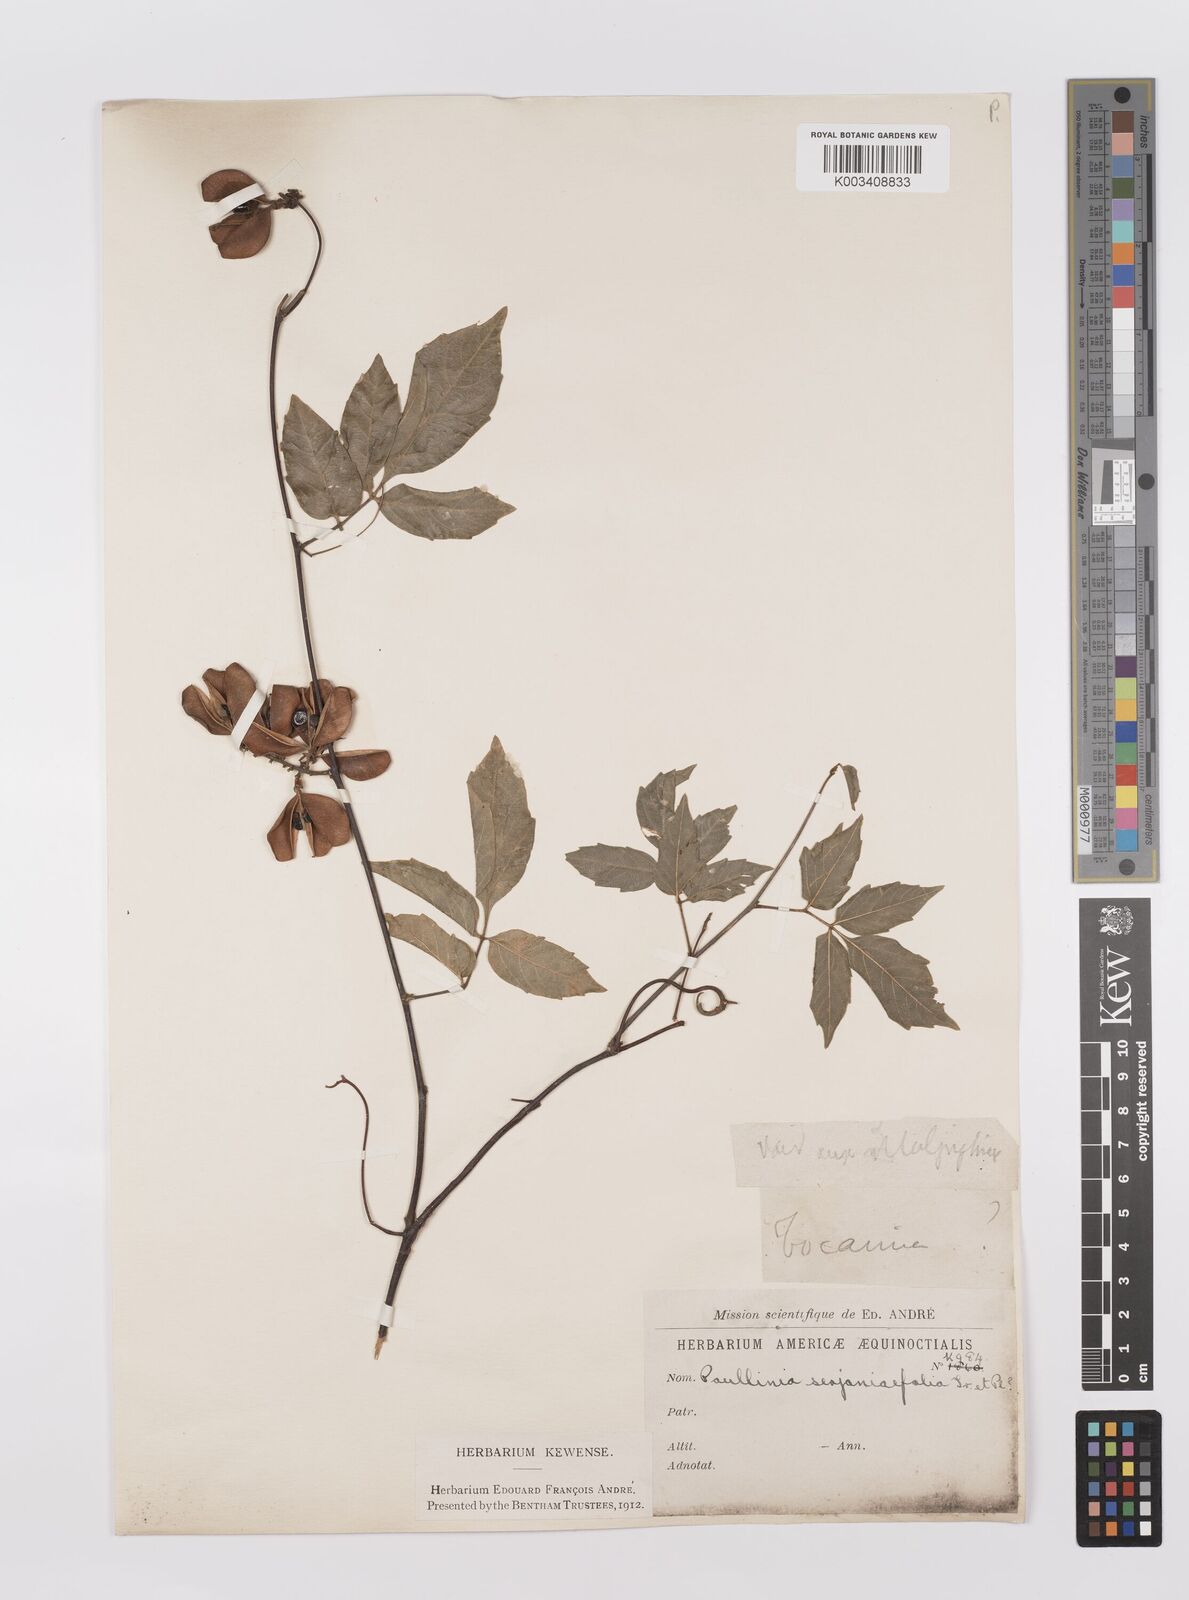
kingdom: Plantae
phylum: Tracheophyta
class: Magnoliopsida
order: Sapindales
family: Sapindaceae
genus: Paullinia
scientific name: Paullinia serjaniifolia
